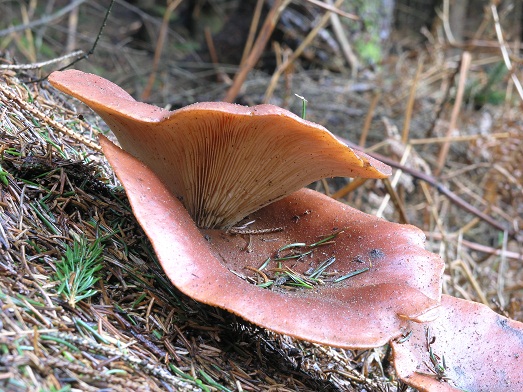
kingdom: Fungi
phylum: Basidiomycota
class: Agaricomycetes
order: Agaricales
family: Tricholomataceae
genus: Paralepista
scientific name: Paralepista flaccida
